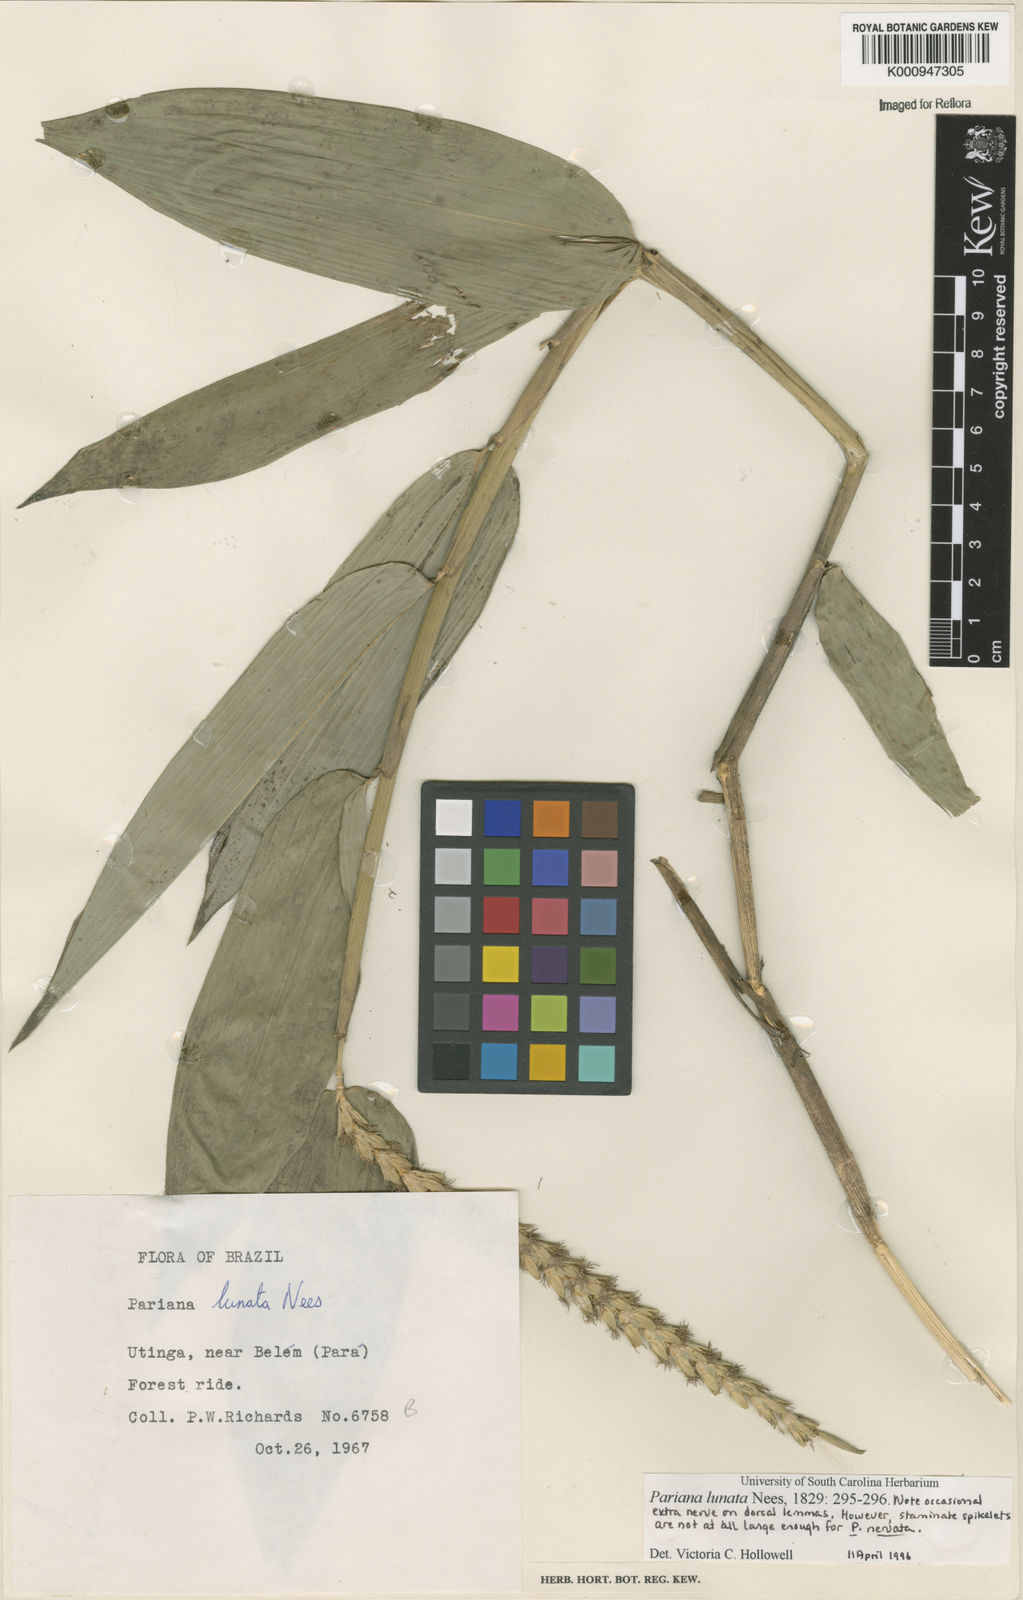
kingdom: Plantae
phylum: Tracheophyta
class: Liliopsida
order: Poales
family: Poaceae
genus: Pariana
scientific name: Pariana lunata
